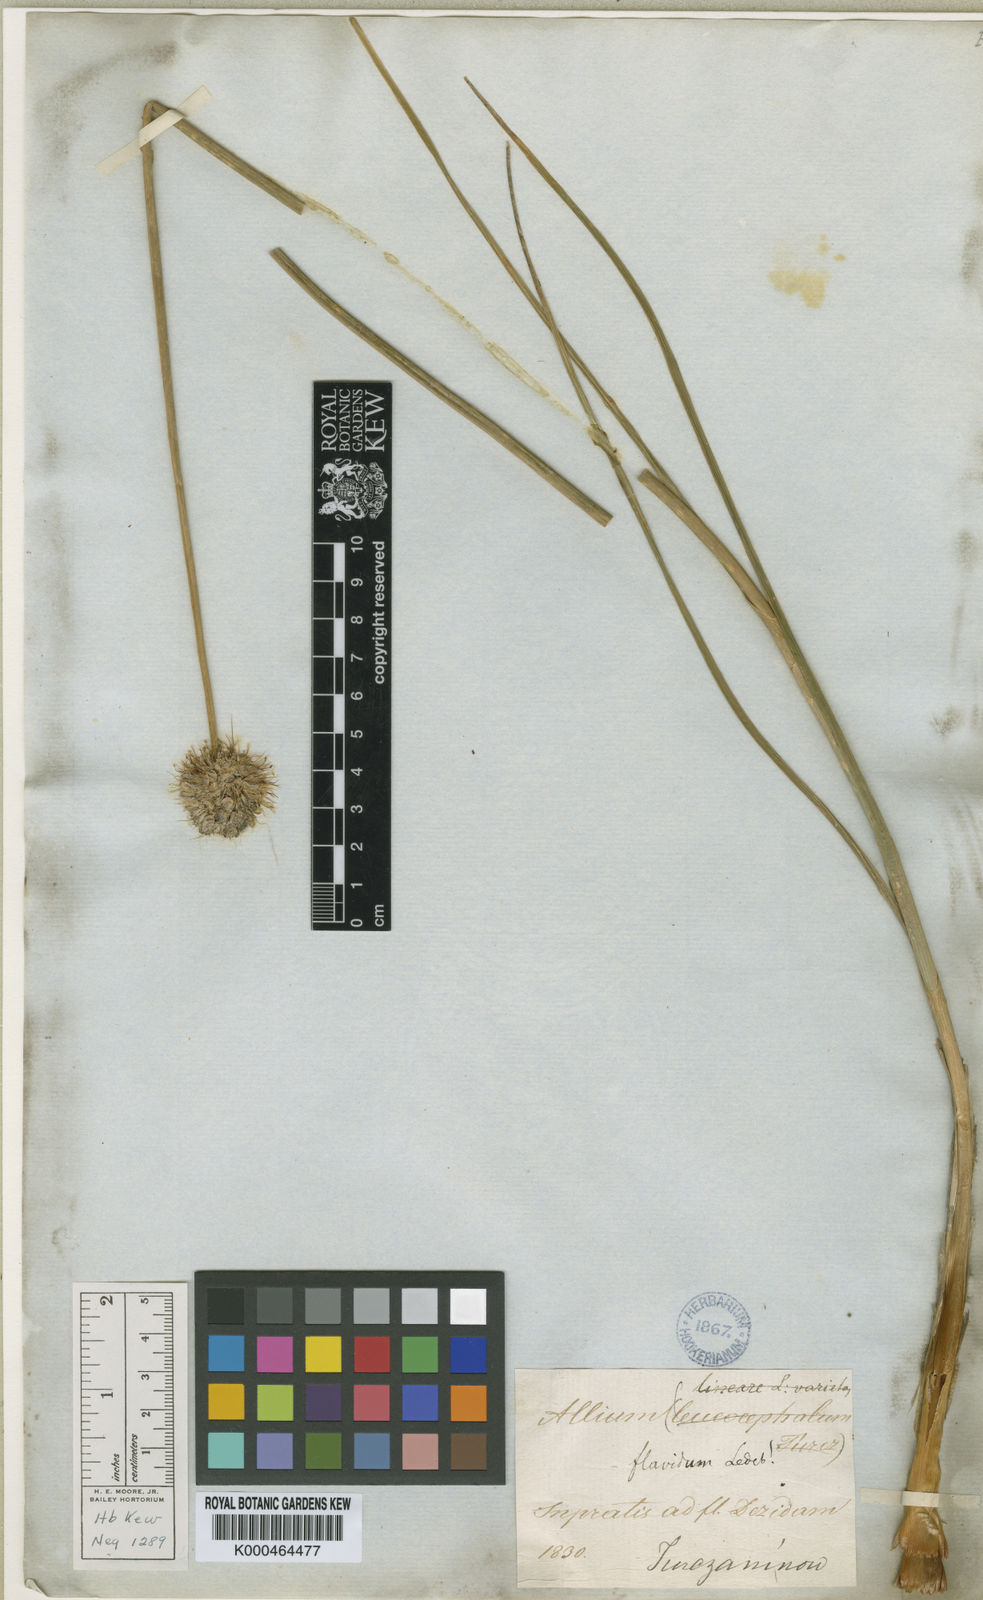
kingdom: Plantae
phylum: Tracheophyta
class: Liliopsida
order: Asparagales
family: Amaryllidaceae
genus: Allium
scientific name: Allium flavidum
